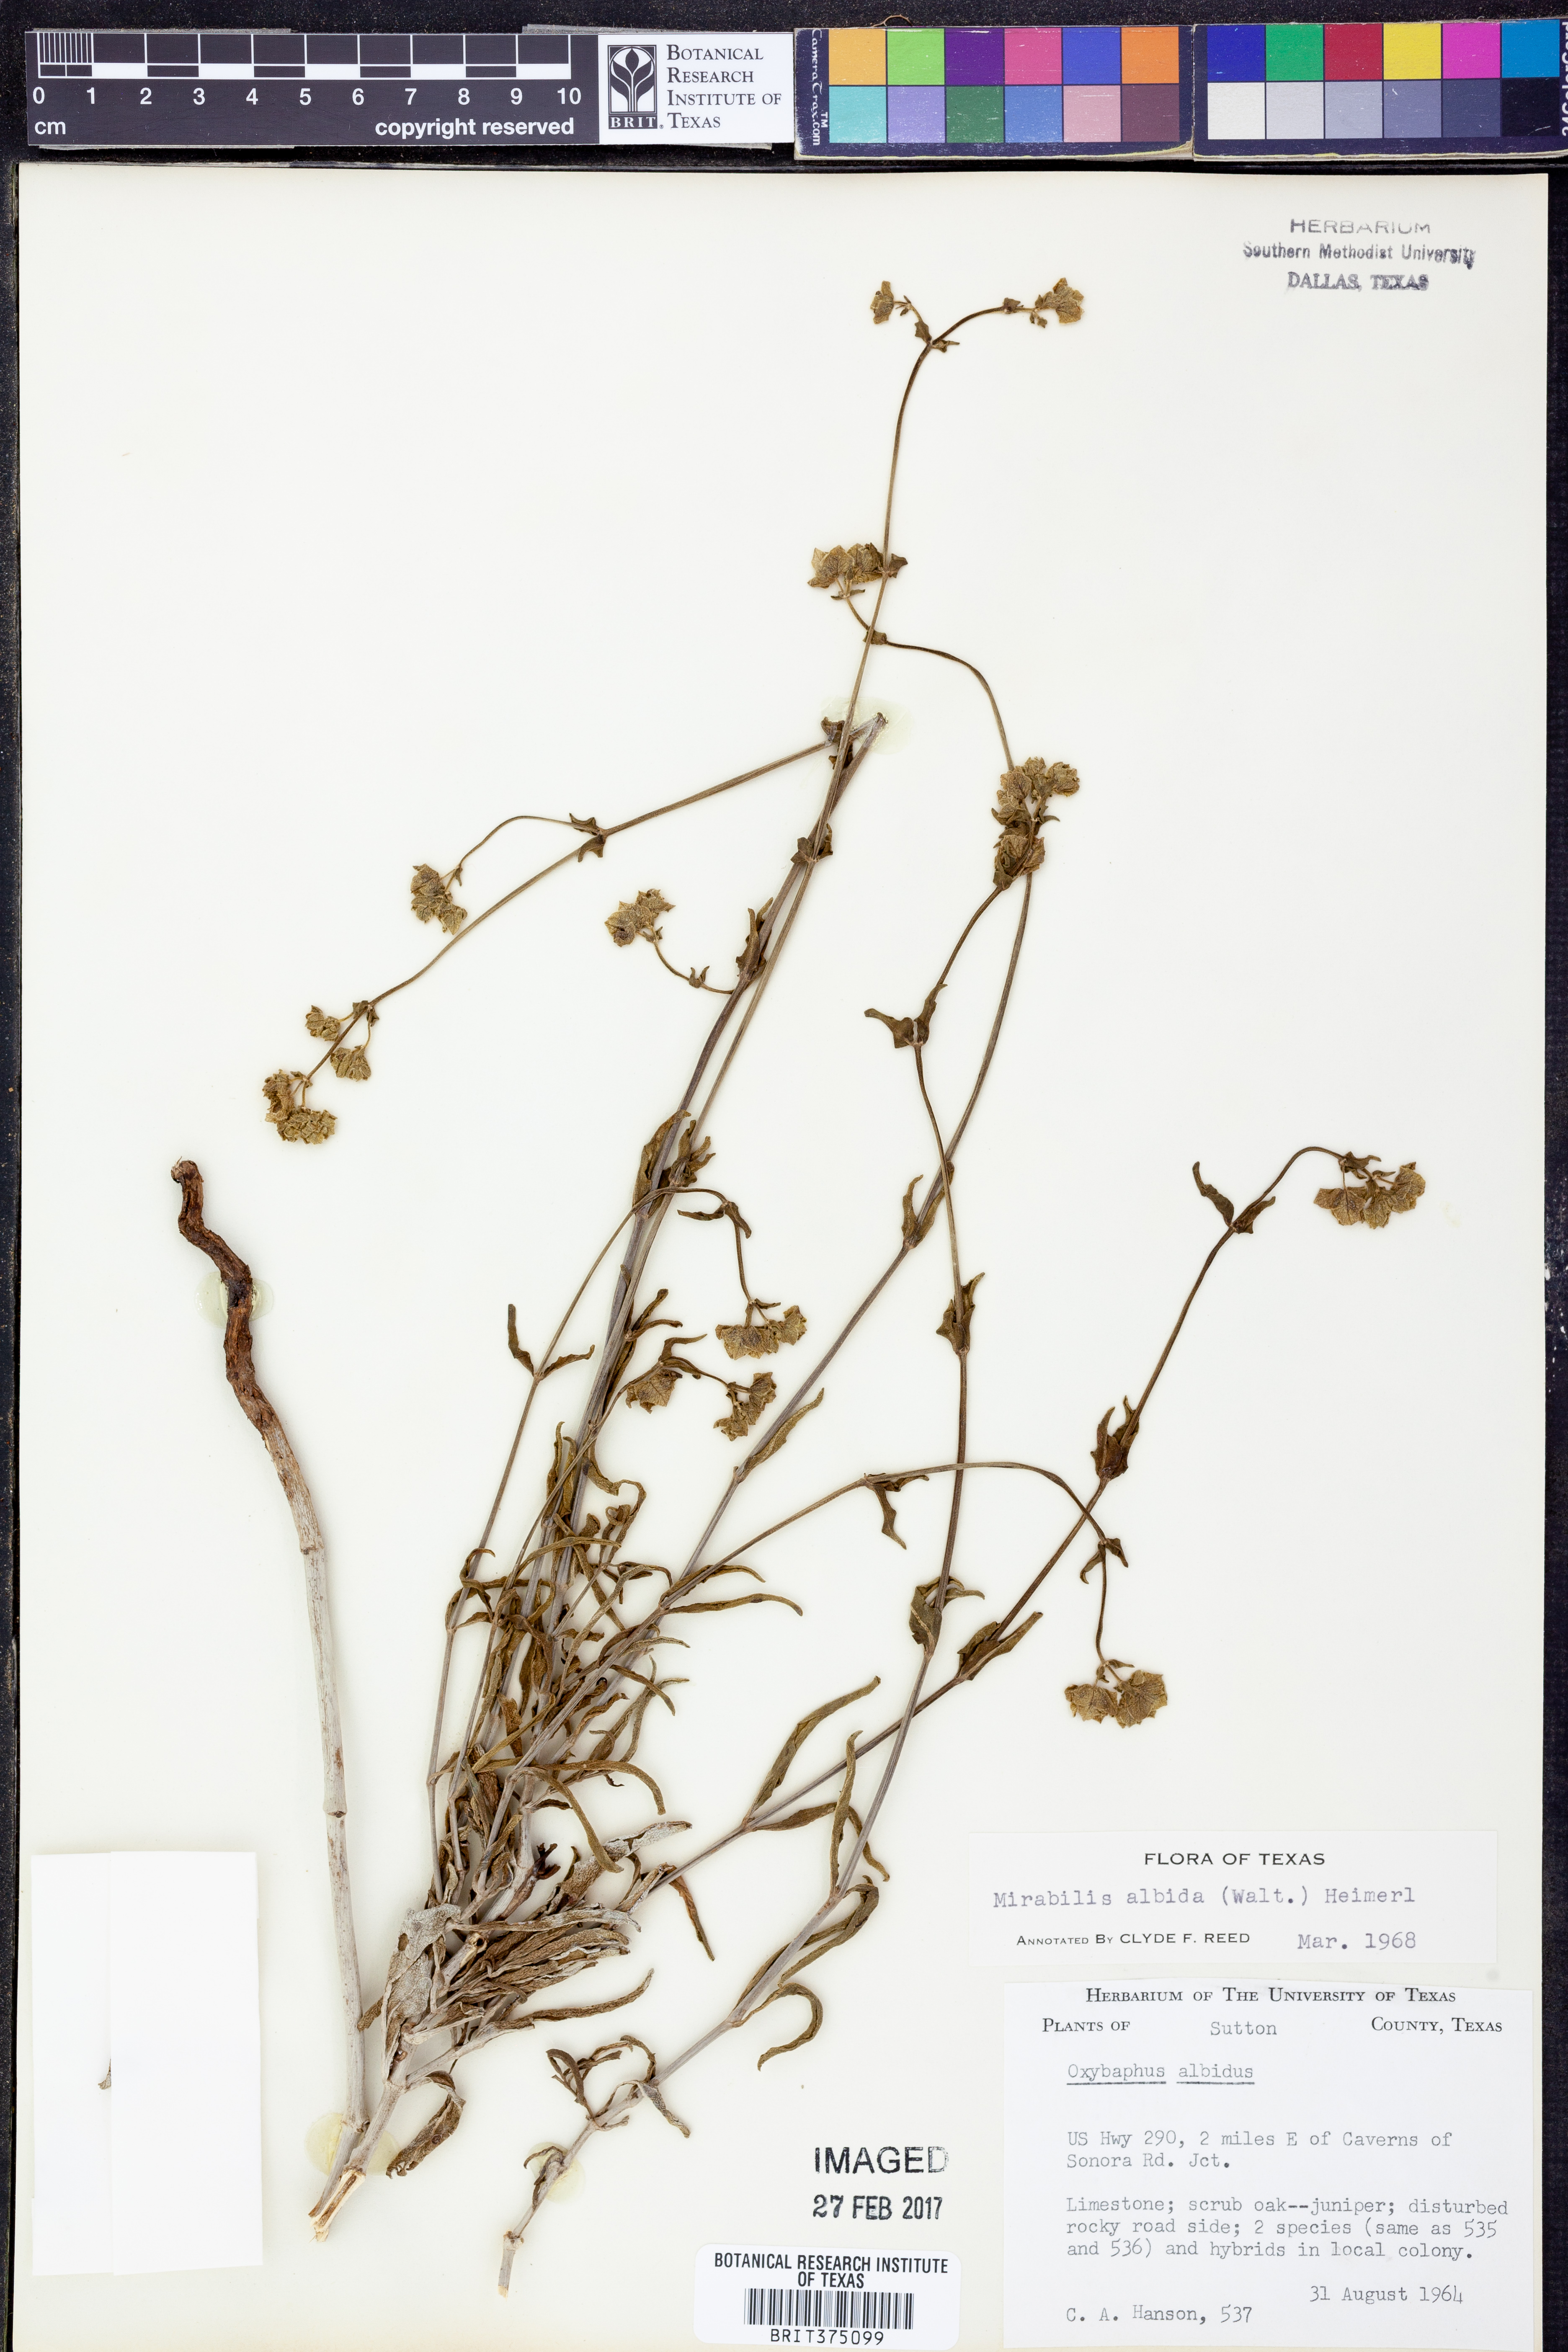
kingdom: Plantae
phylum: Tracheophyta
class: Magnoliopsida
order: Caryophyllales
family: Nyctaginaceae
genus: Mirabilis
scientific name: Mirabilis albida
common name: Hairy four-o'clock
